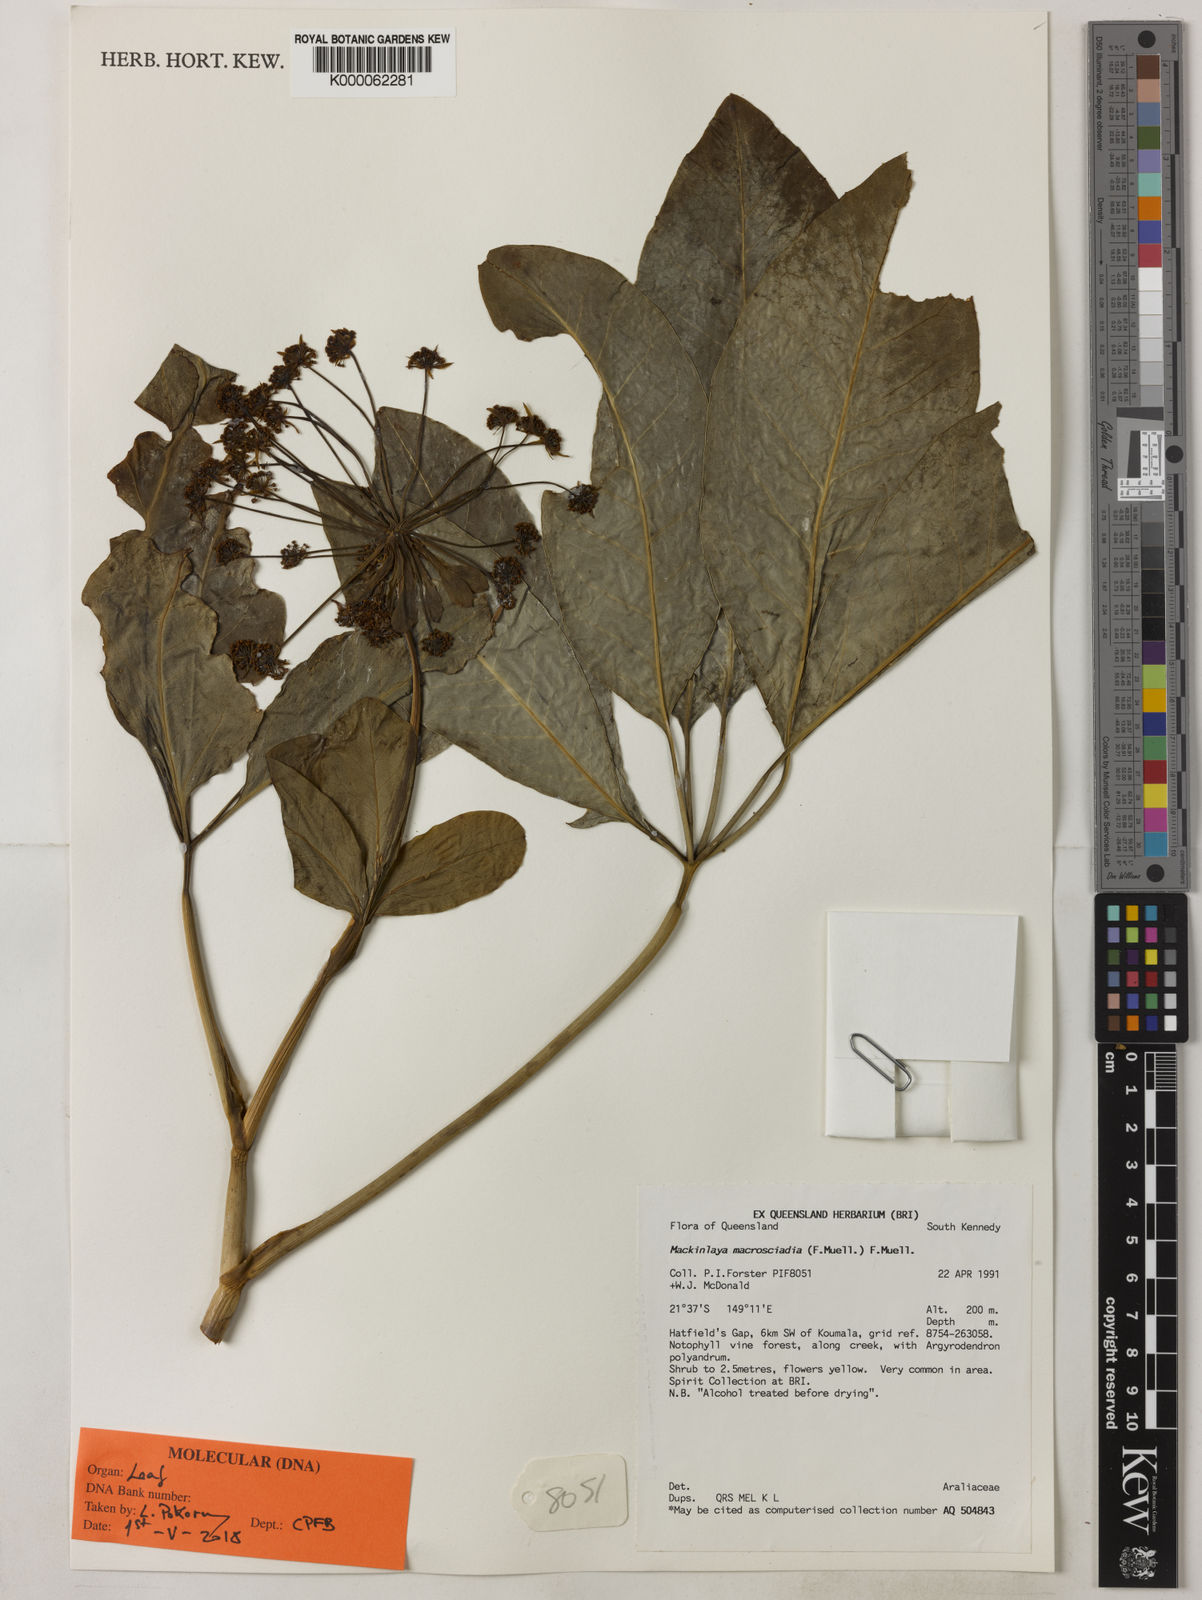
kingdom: Plantae
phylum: Tracheophyta
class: Magnoliopsida
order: Apiales
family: Apiaceae
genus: Mackinlaya
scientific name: Mackinlaya macrosciadea
